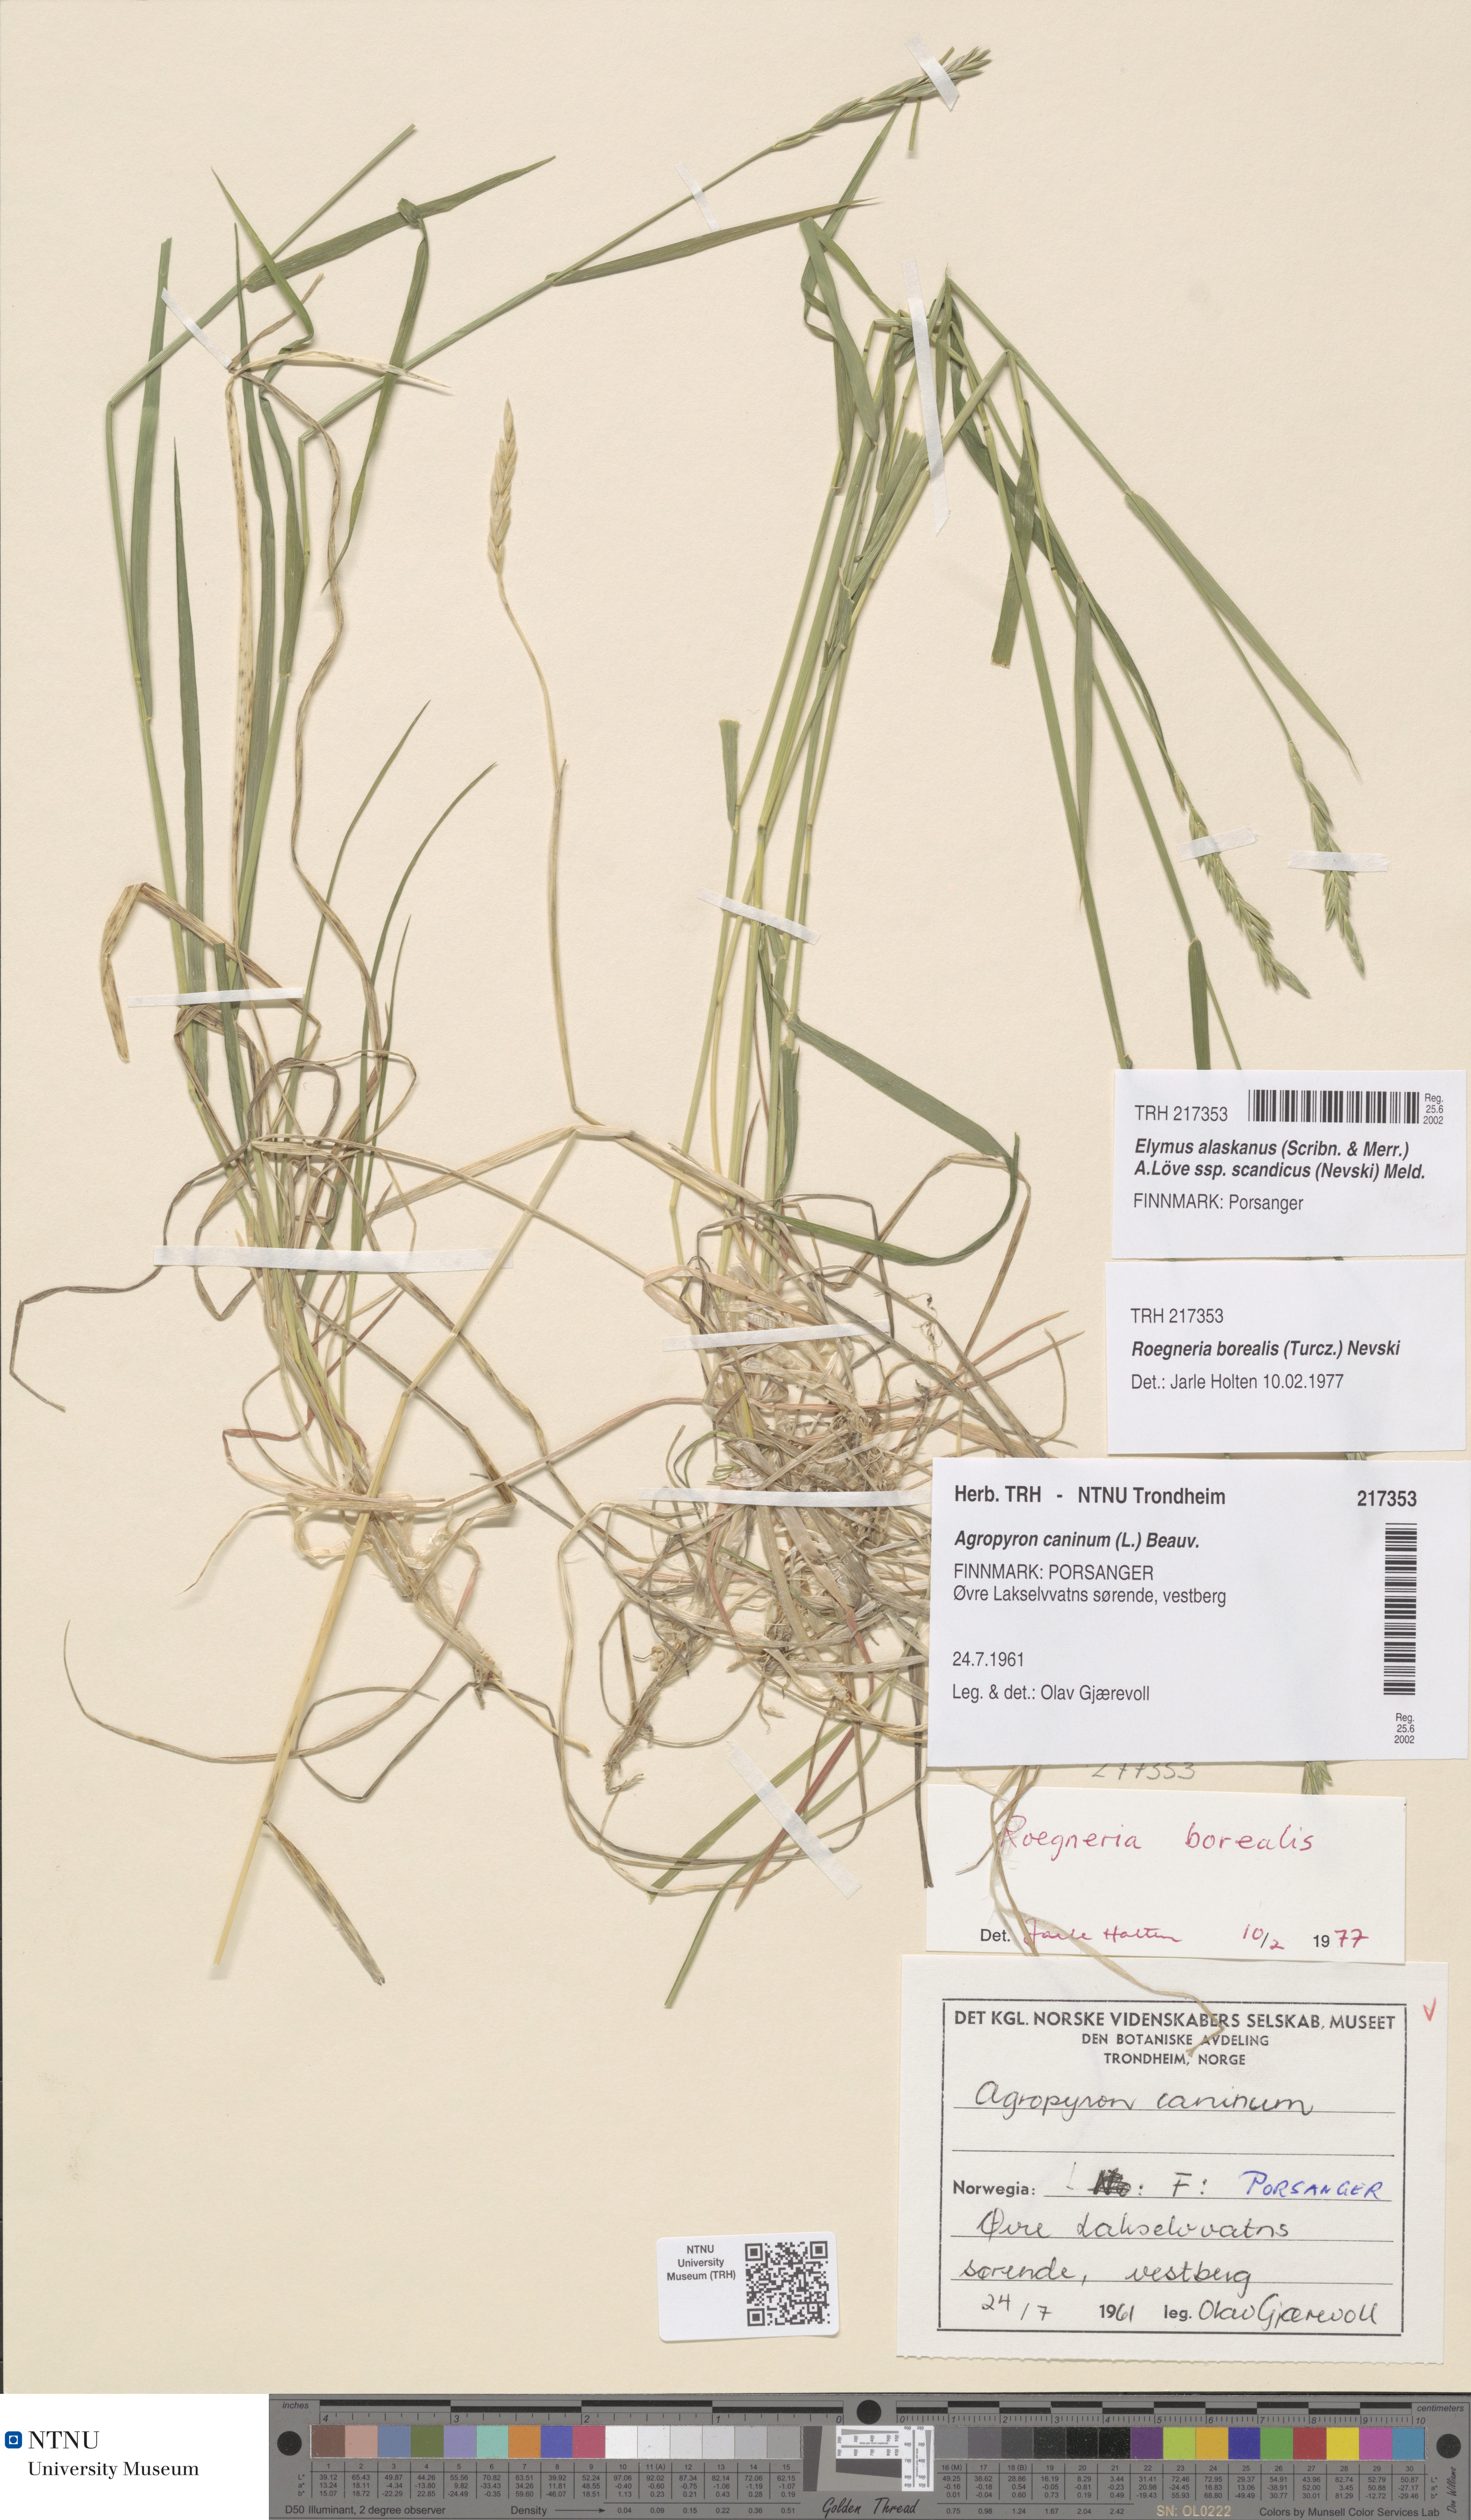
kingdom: Plantae
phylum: Tracheophyta
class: Liliopsida
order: Poales
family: Poaceae
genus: Elymus
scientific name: Elymus macrourus
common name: Northern wheatgrass
